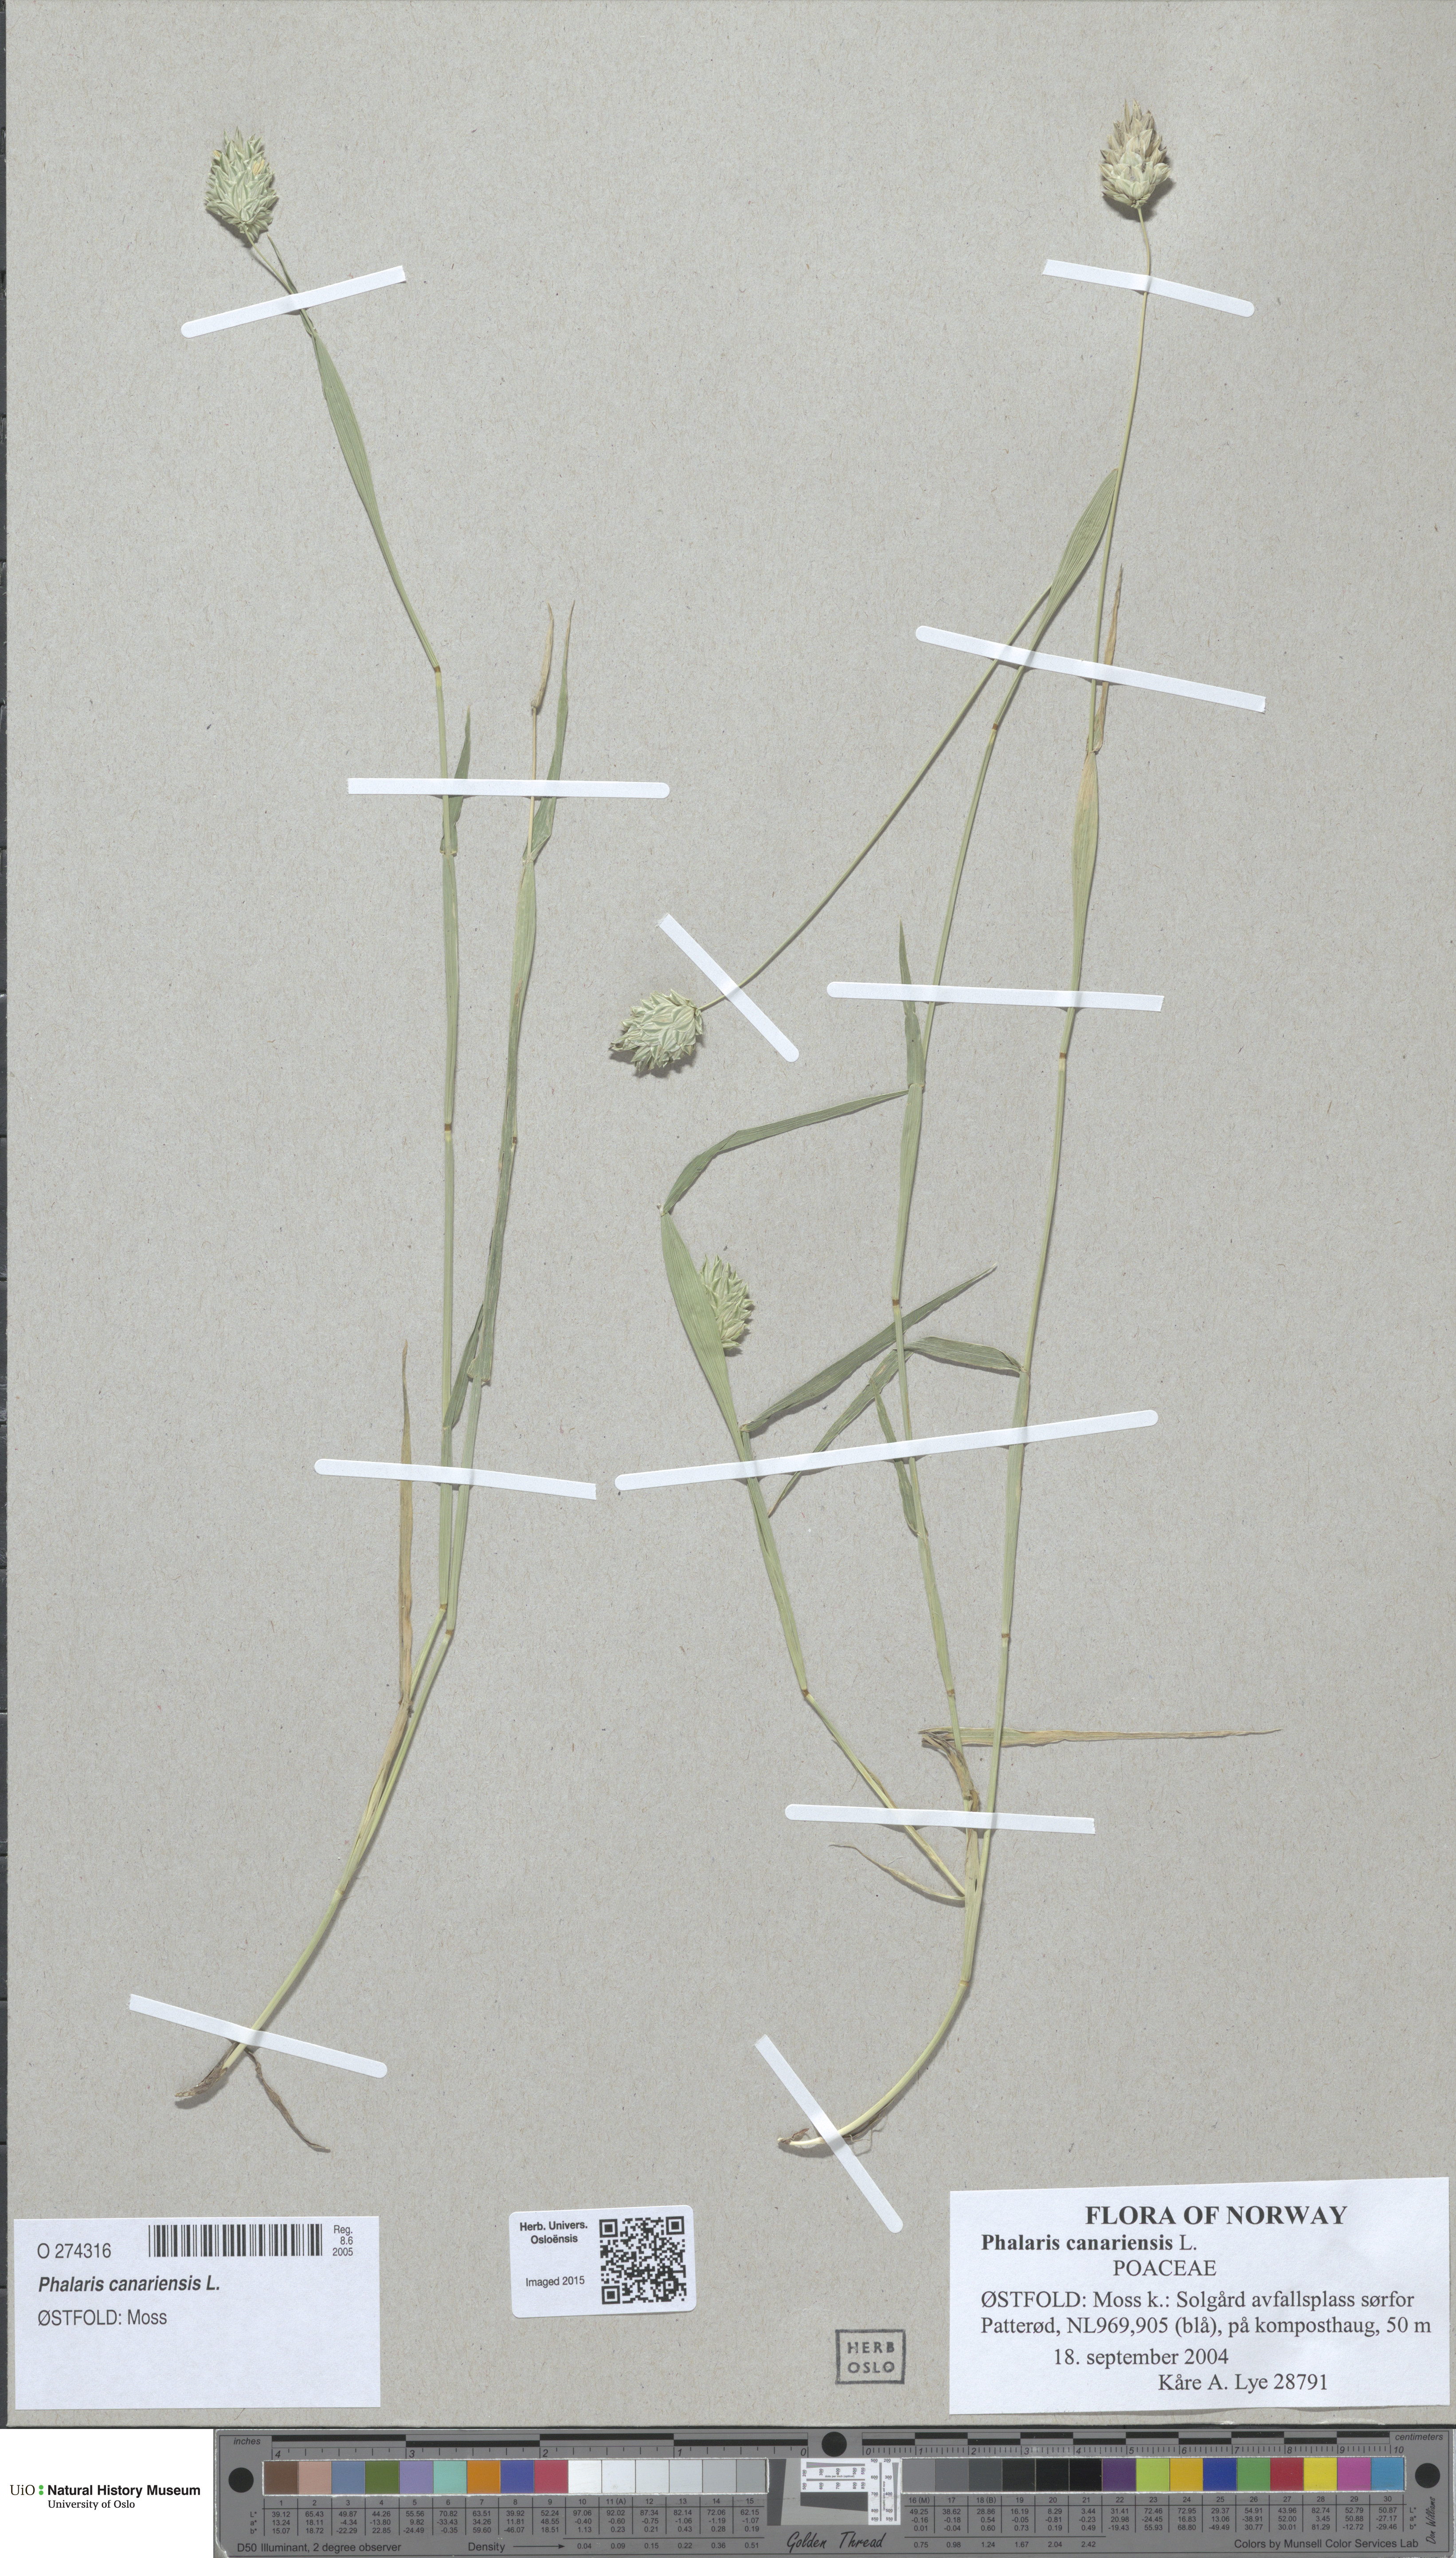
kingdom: Plantae
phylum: Tracheophyta
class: Liliopsida
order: Poales
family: Poaceae
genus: Phalaris
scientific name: Phalaris canariensis
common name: Annual canarygrass
